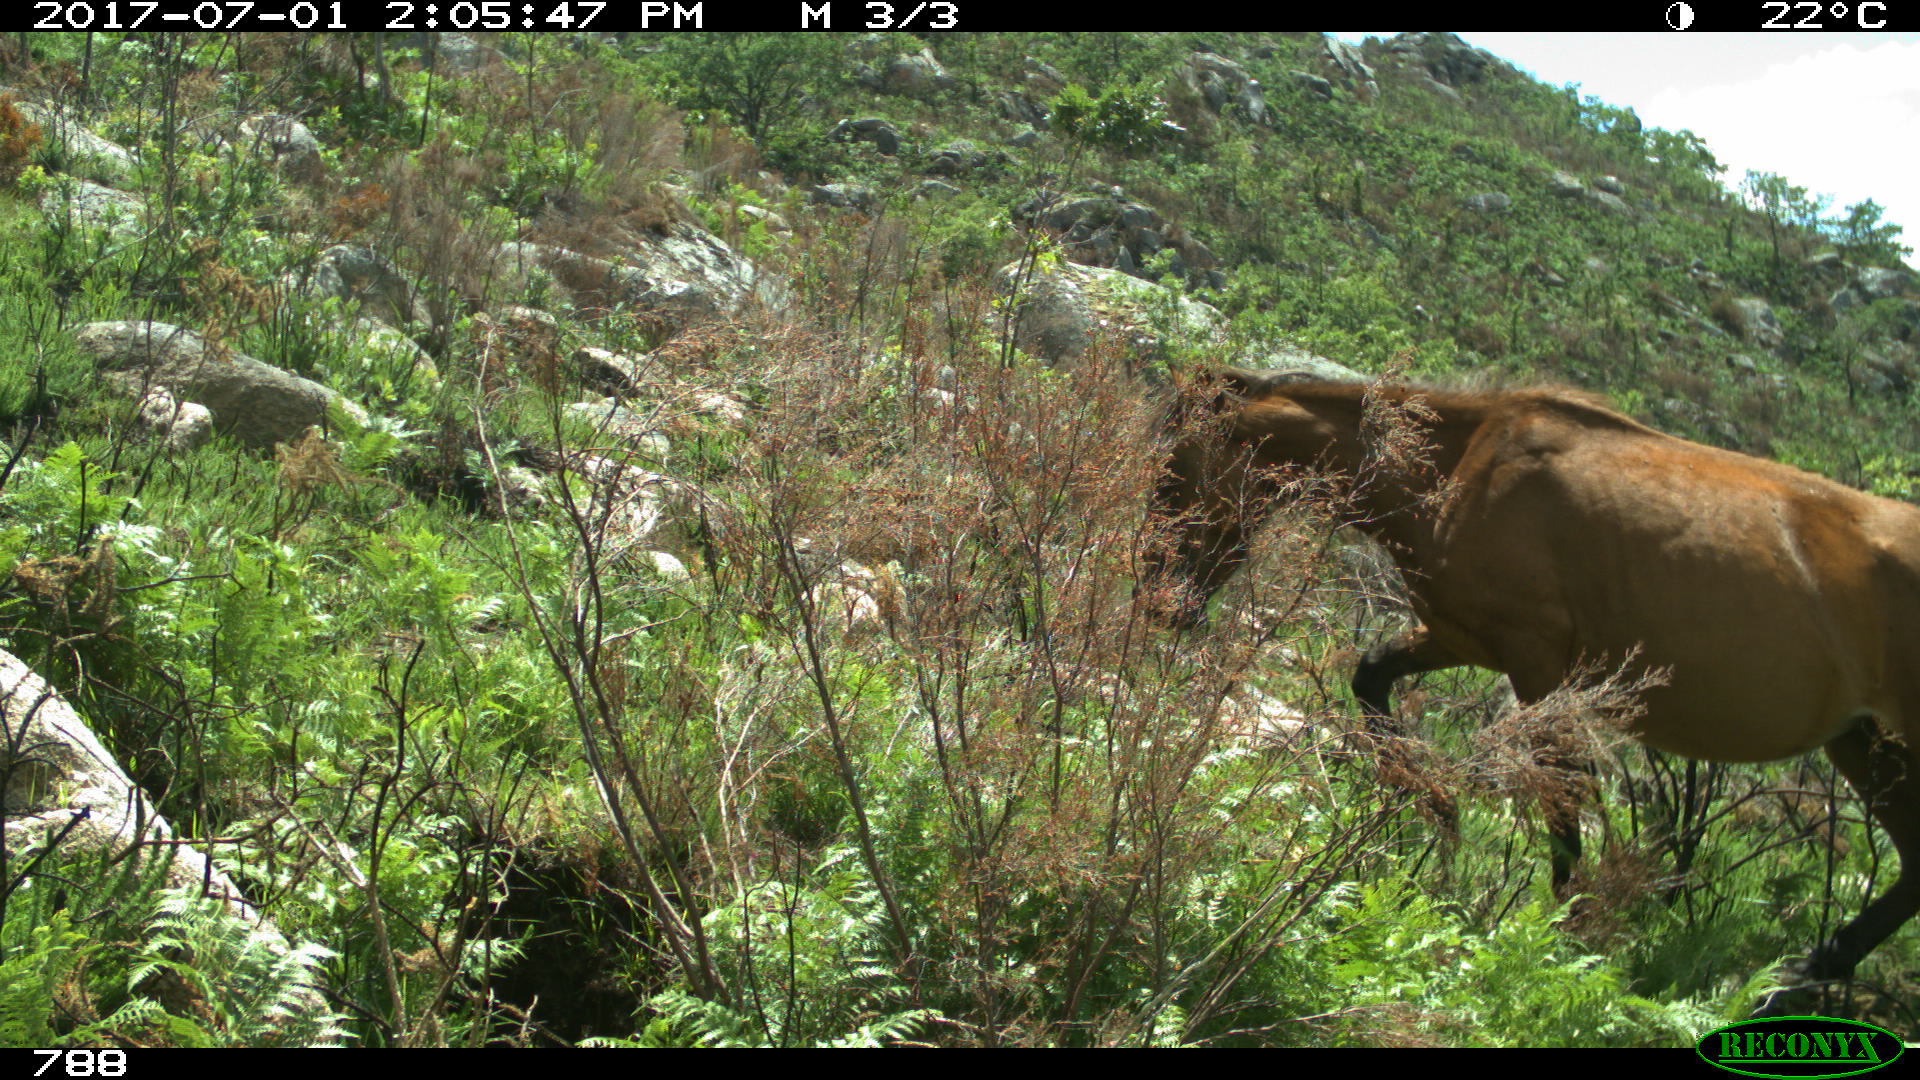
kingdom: Animalia
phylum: Chordata
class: Mammalia
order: Perissodactyla
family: Equidae
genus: Equus
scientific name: Equus caballus
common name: Horse
